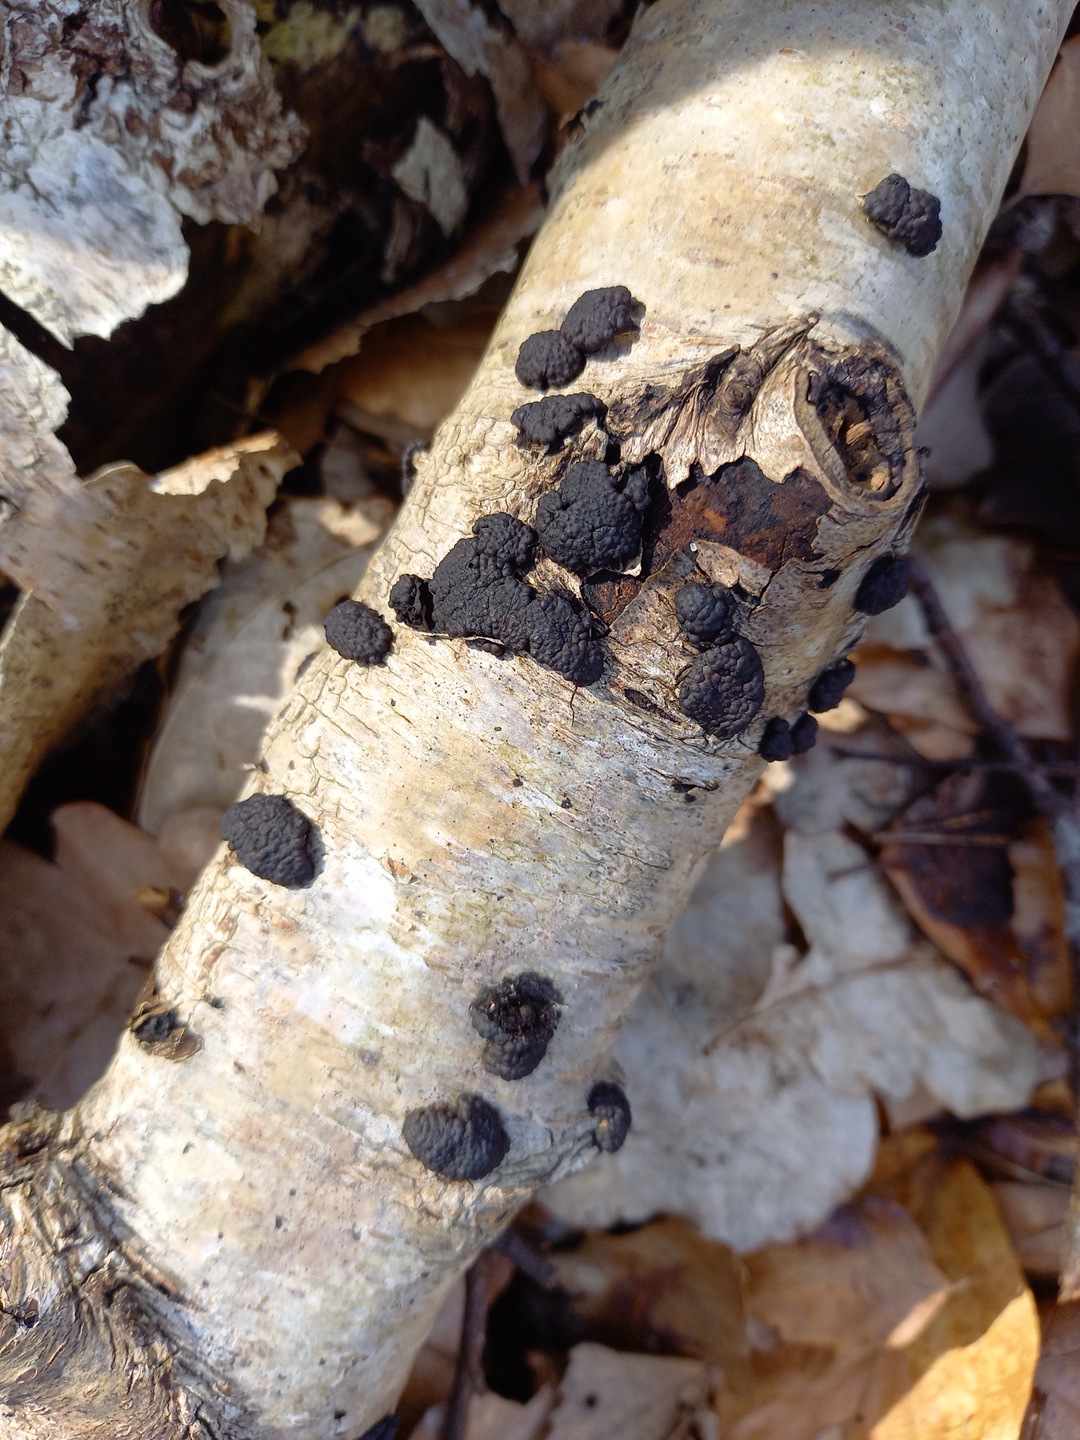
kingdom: Fungi
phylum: Ascomycota
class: Sordariomycetes
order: Xylariales
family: Hypoxylaceae
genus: Jackrogersella
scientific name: Jackrogersella multiformis
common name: foranderlig kulbær
